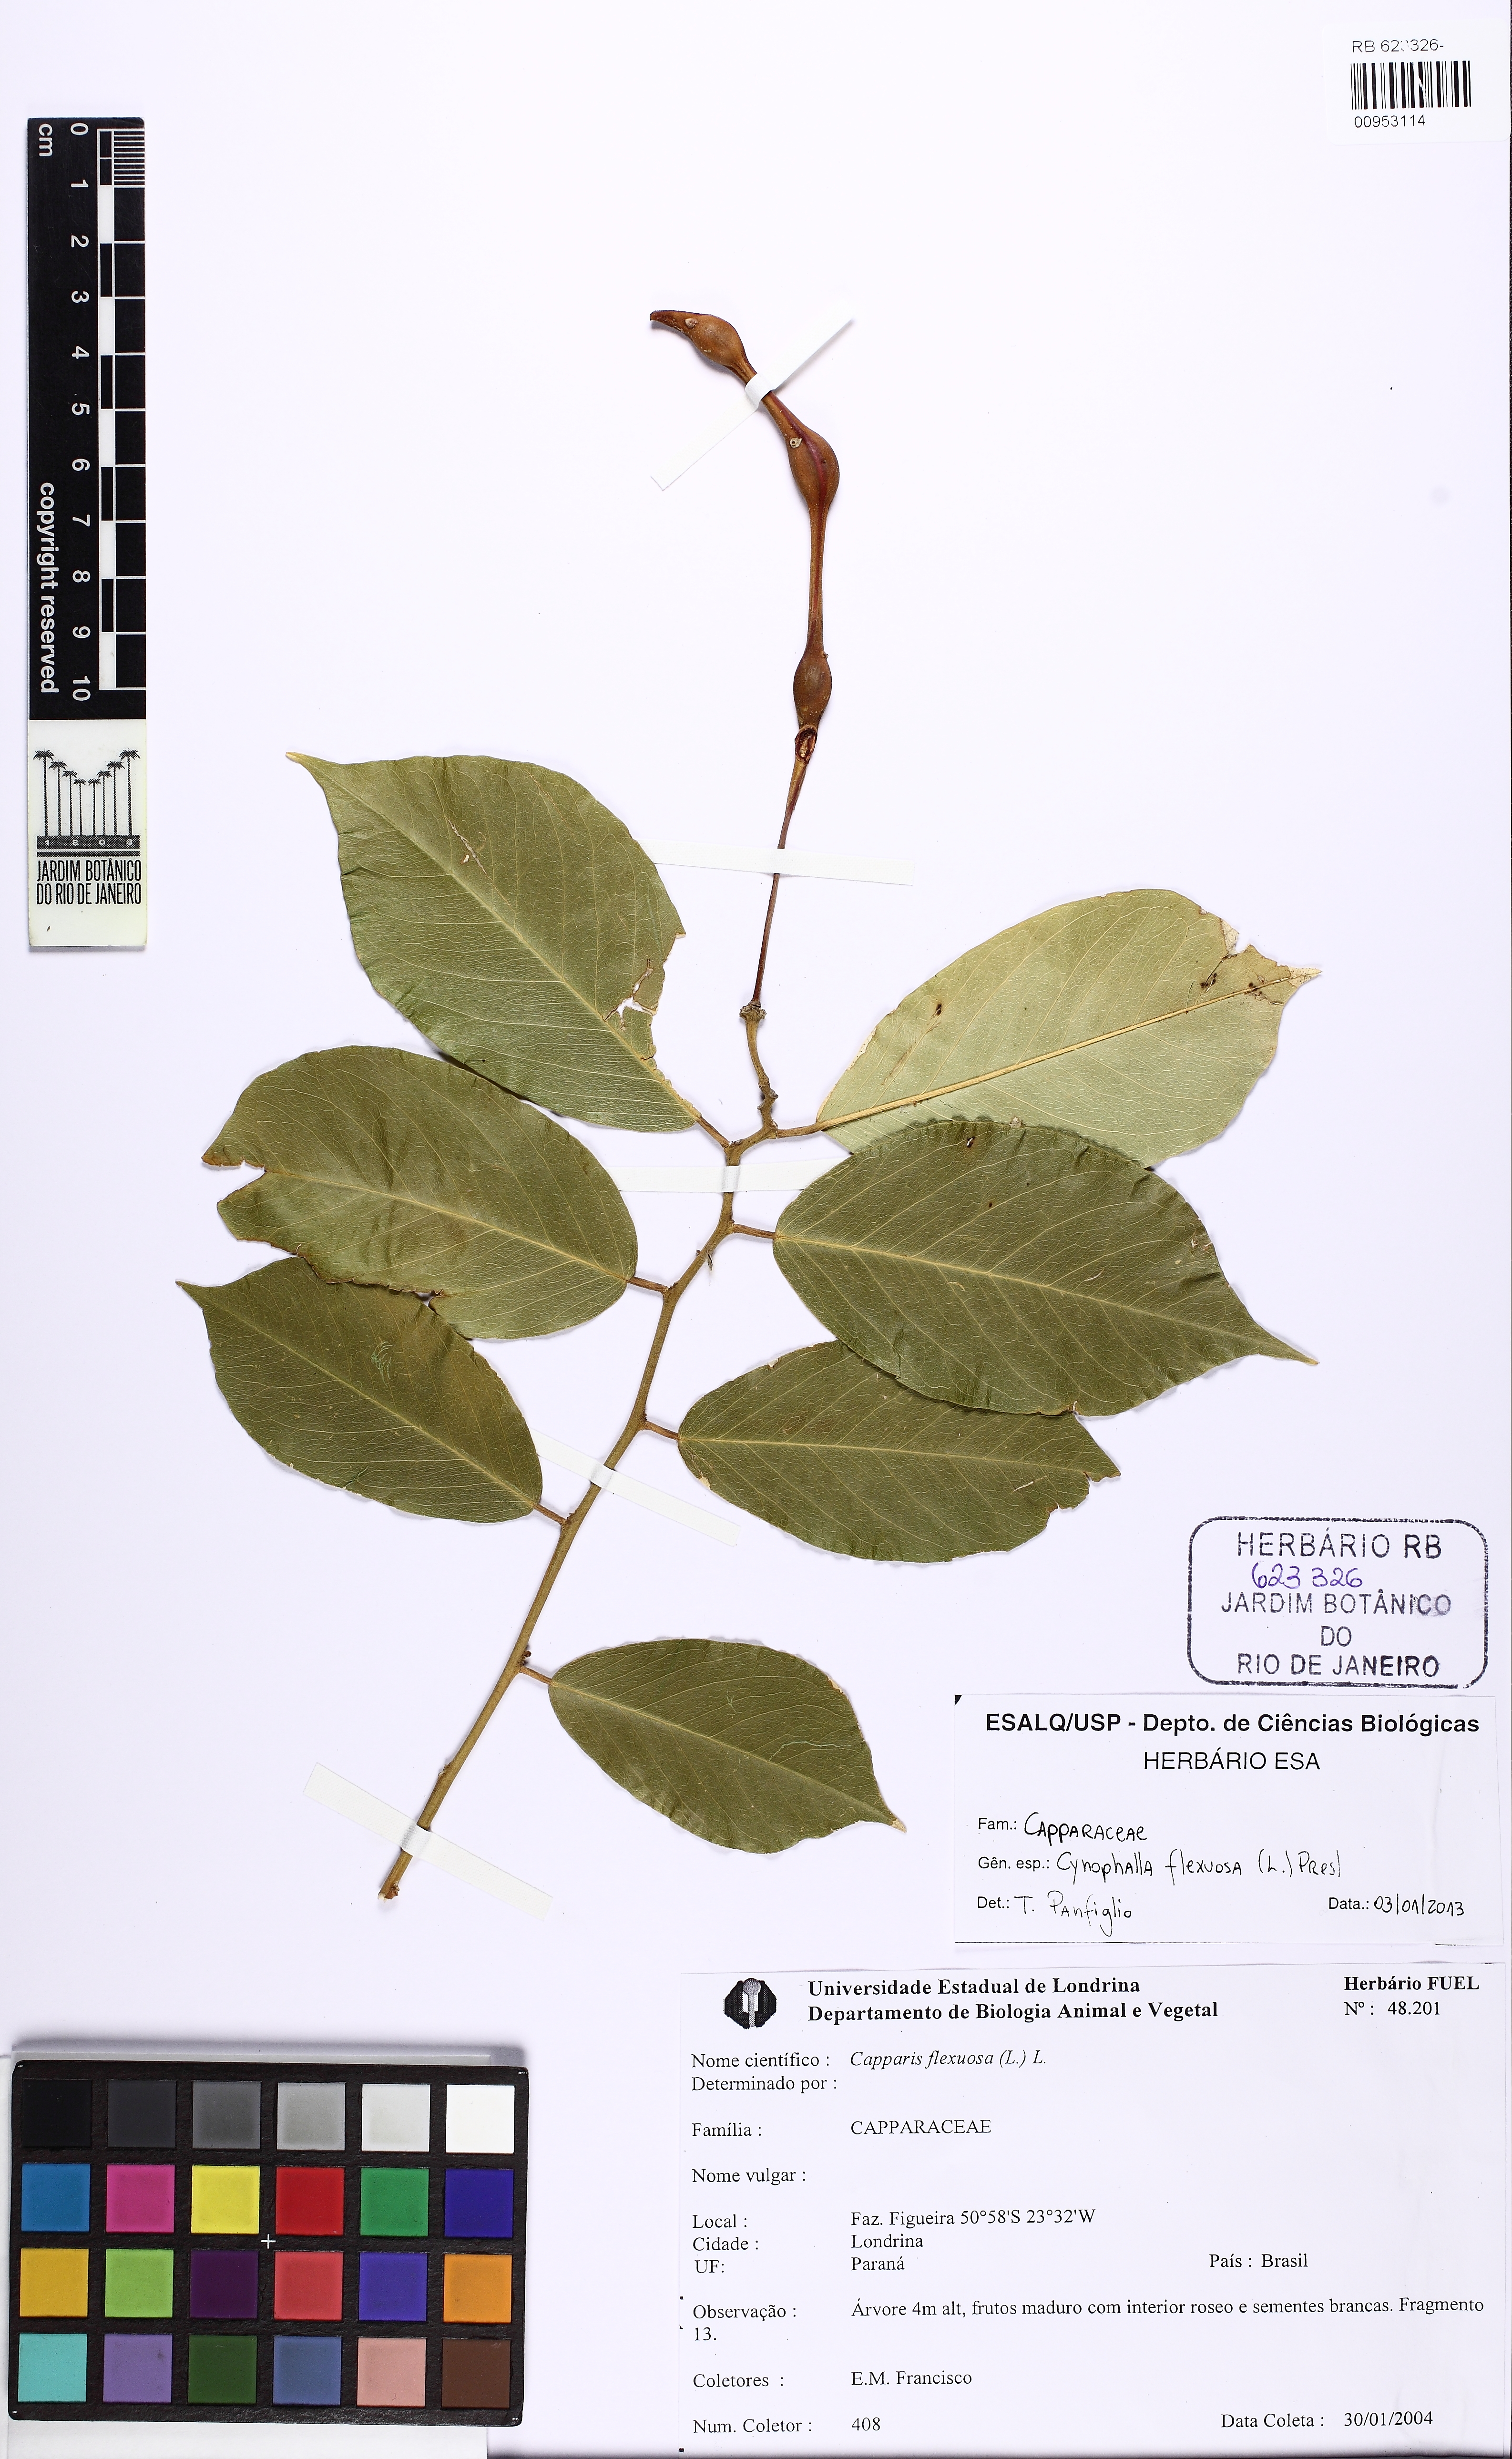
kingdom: Plantae
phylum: Tracheophyta
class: Magnoliopsida
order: Brassicales
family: Capparaceae
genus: Cynophalla
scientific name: Cynophalla flexuosa
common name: Capertree
